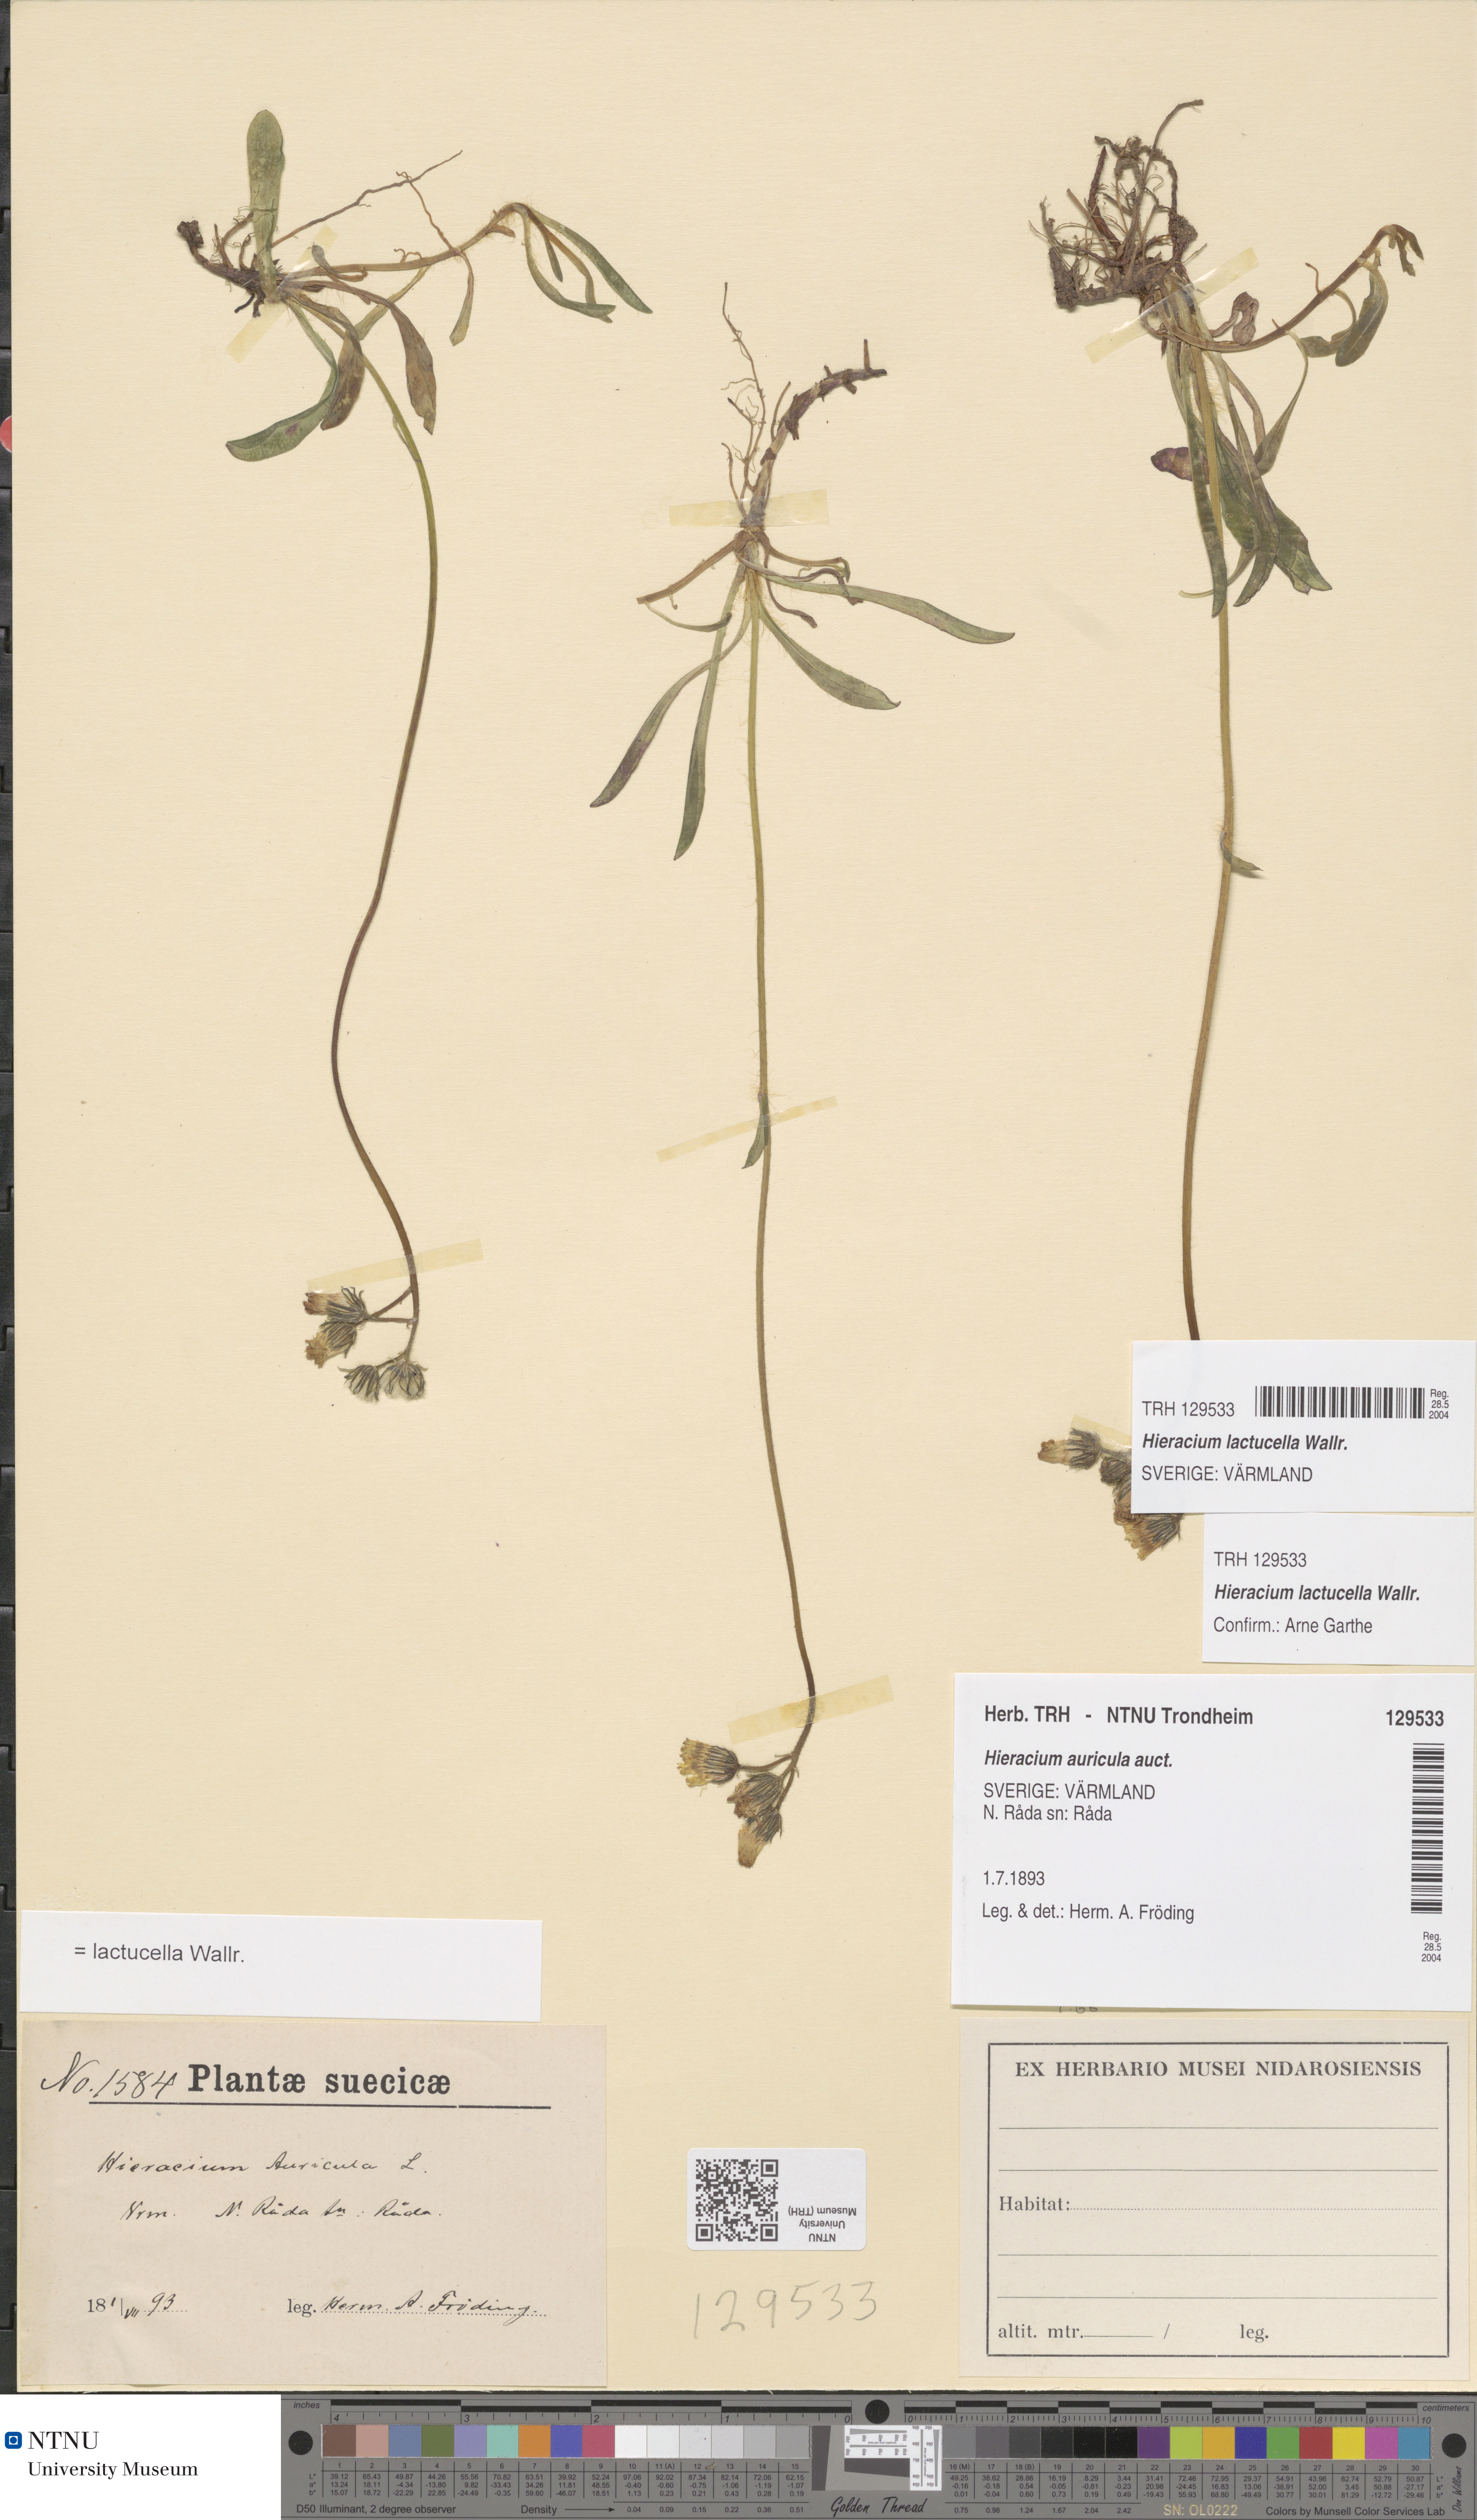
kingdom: Plantae
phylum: Tracheophyta
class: Magnoliopsida
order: Asterales
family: Asteraceae
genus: Pilosella
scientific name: Pilosella lactucella
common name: Glaucous fox-and-cubs
